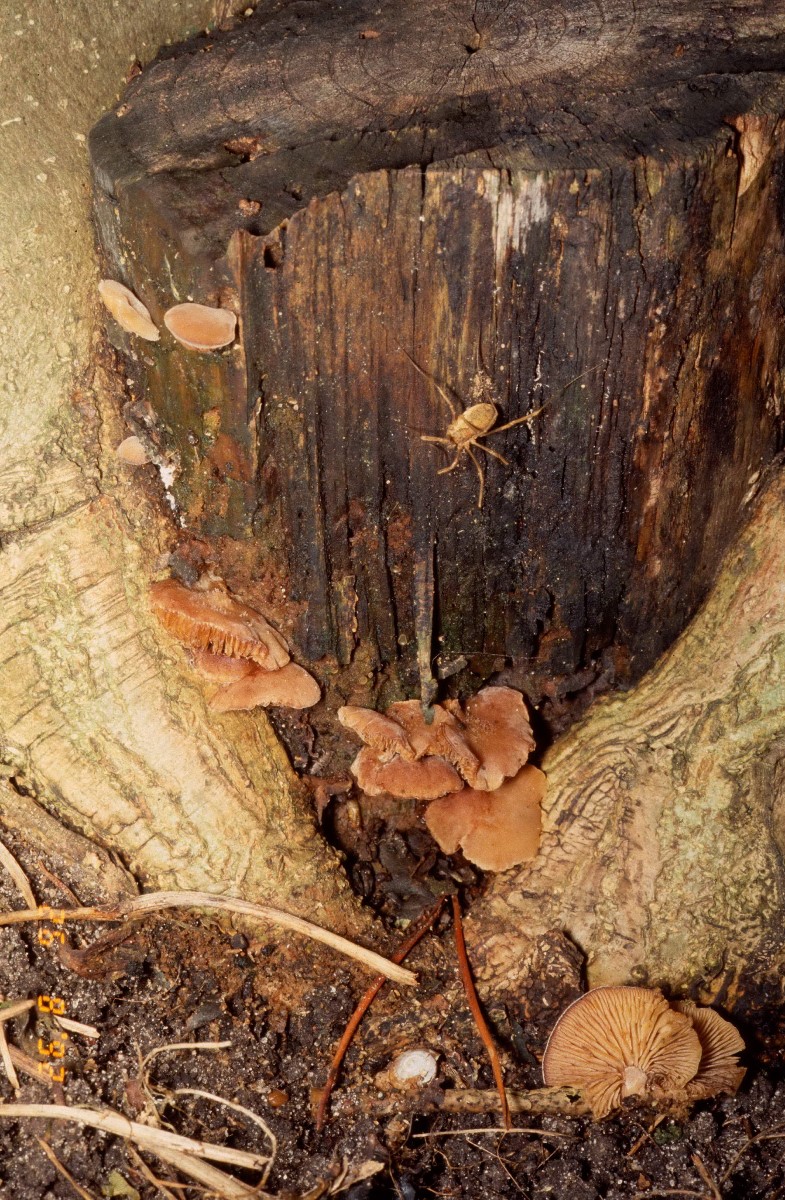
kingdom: Fungi
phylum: Basidiomycota
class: Agaricomycetes
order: Agaricales
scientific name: Agaricales
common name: champignonordenen
